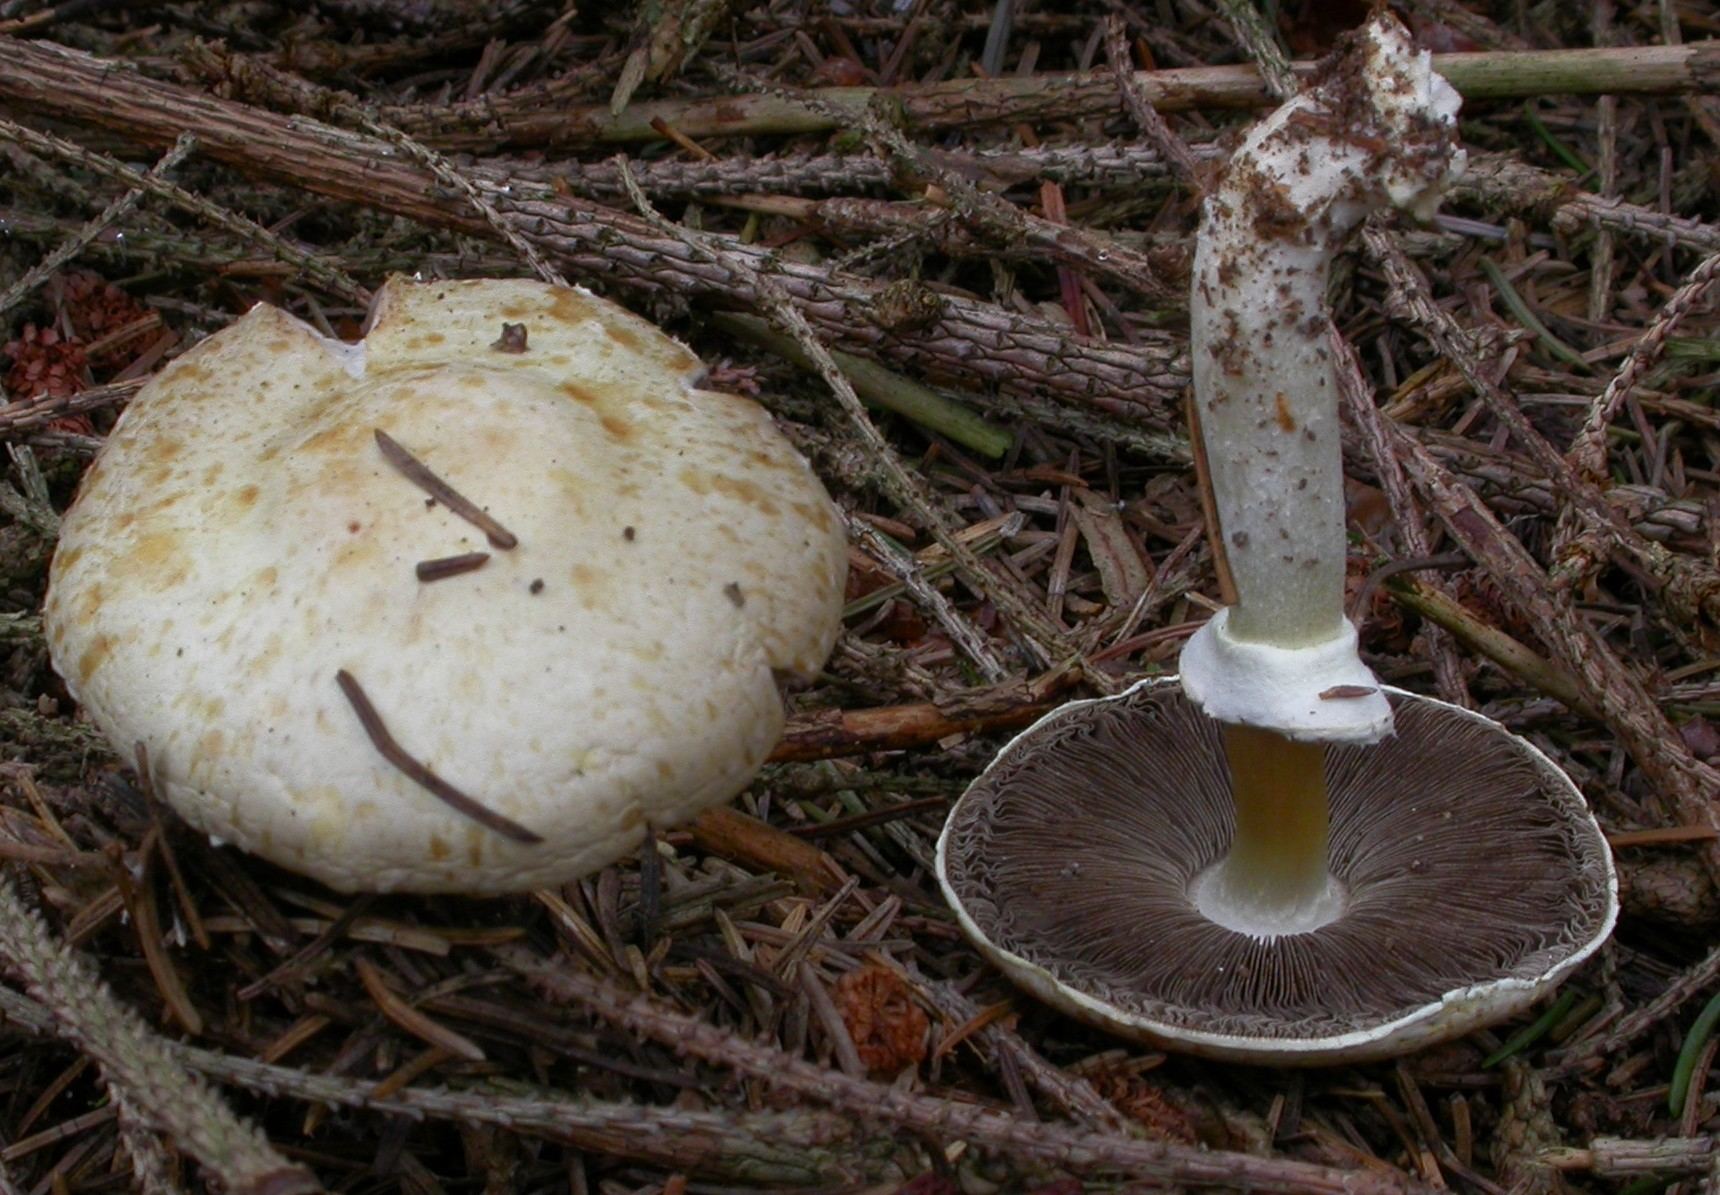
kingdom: Fungi
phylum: Basidiomycota
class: Agaricomycetes
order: Agaricales
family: Agaricaceae
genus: Agaricus
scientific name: Agaricus dulcidulus
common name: blegrød champignon
